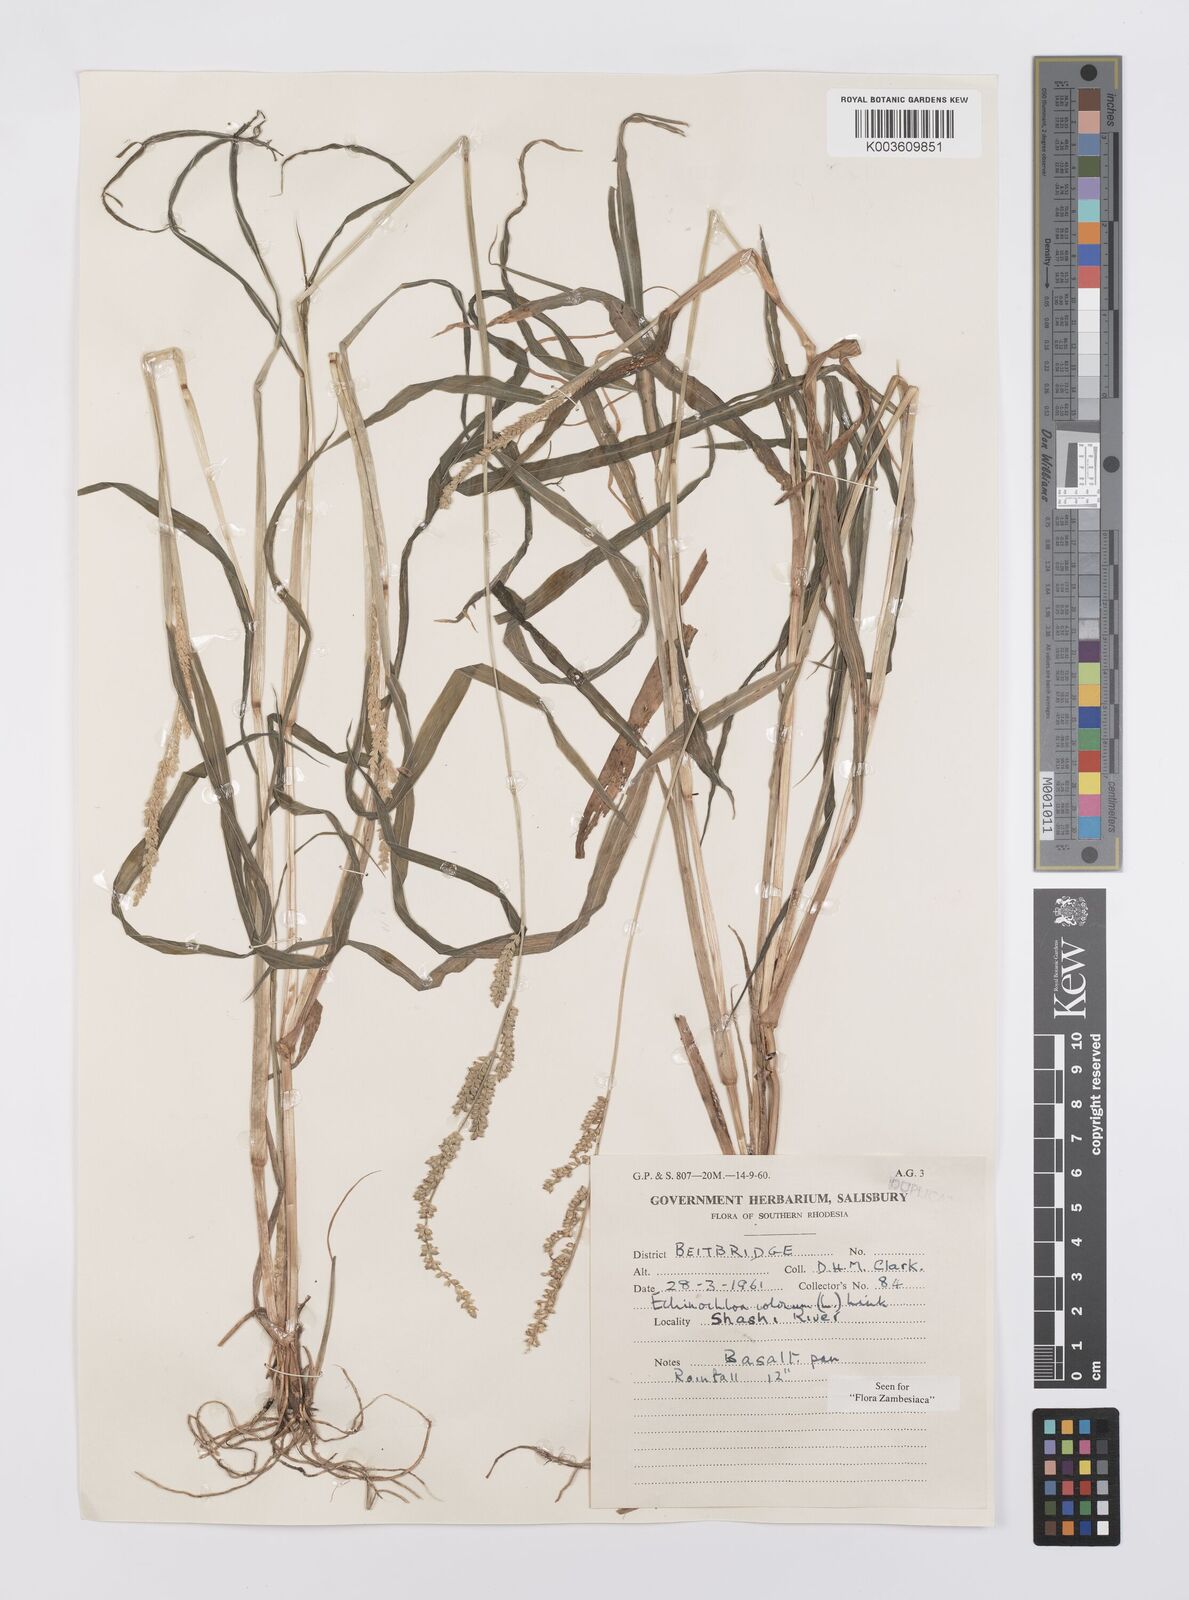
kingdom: Plantae
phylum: Tracheophyta
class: Liliopsida
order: Poales
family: Poaceae
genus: Echinochloa
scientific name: Echinochloa colonum
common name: Jungle rice
